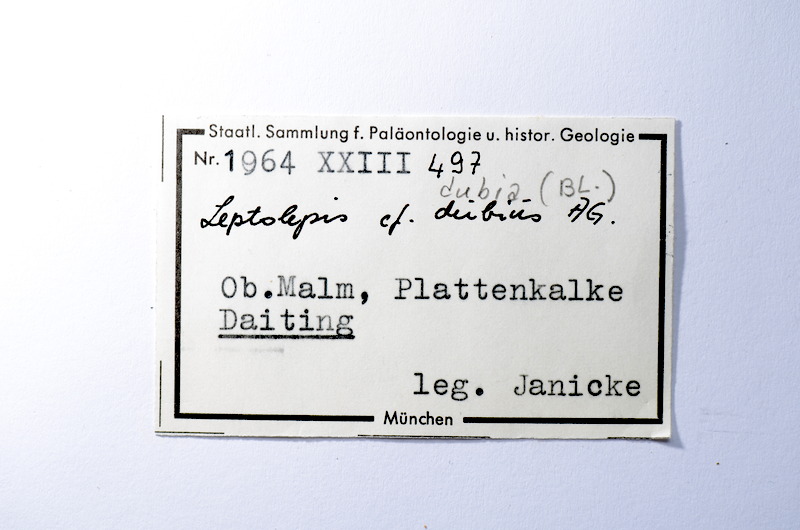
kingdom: Animalia
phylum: Chordata
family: Ascalaboidae
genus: Tharsis
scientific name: Tharsis dubius
